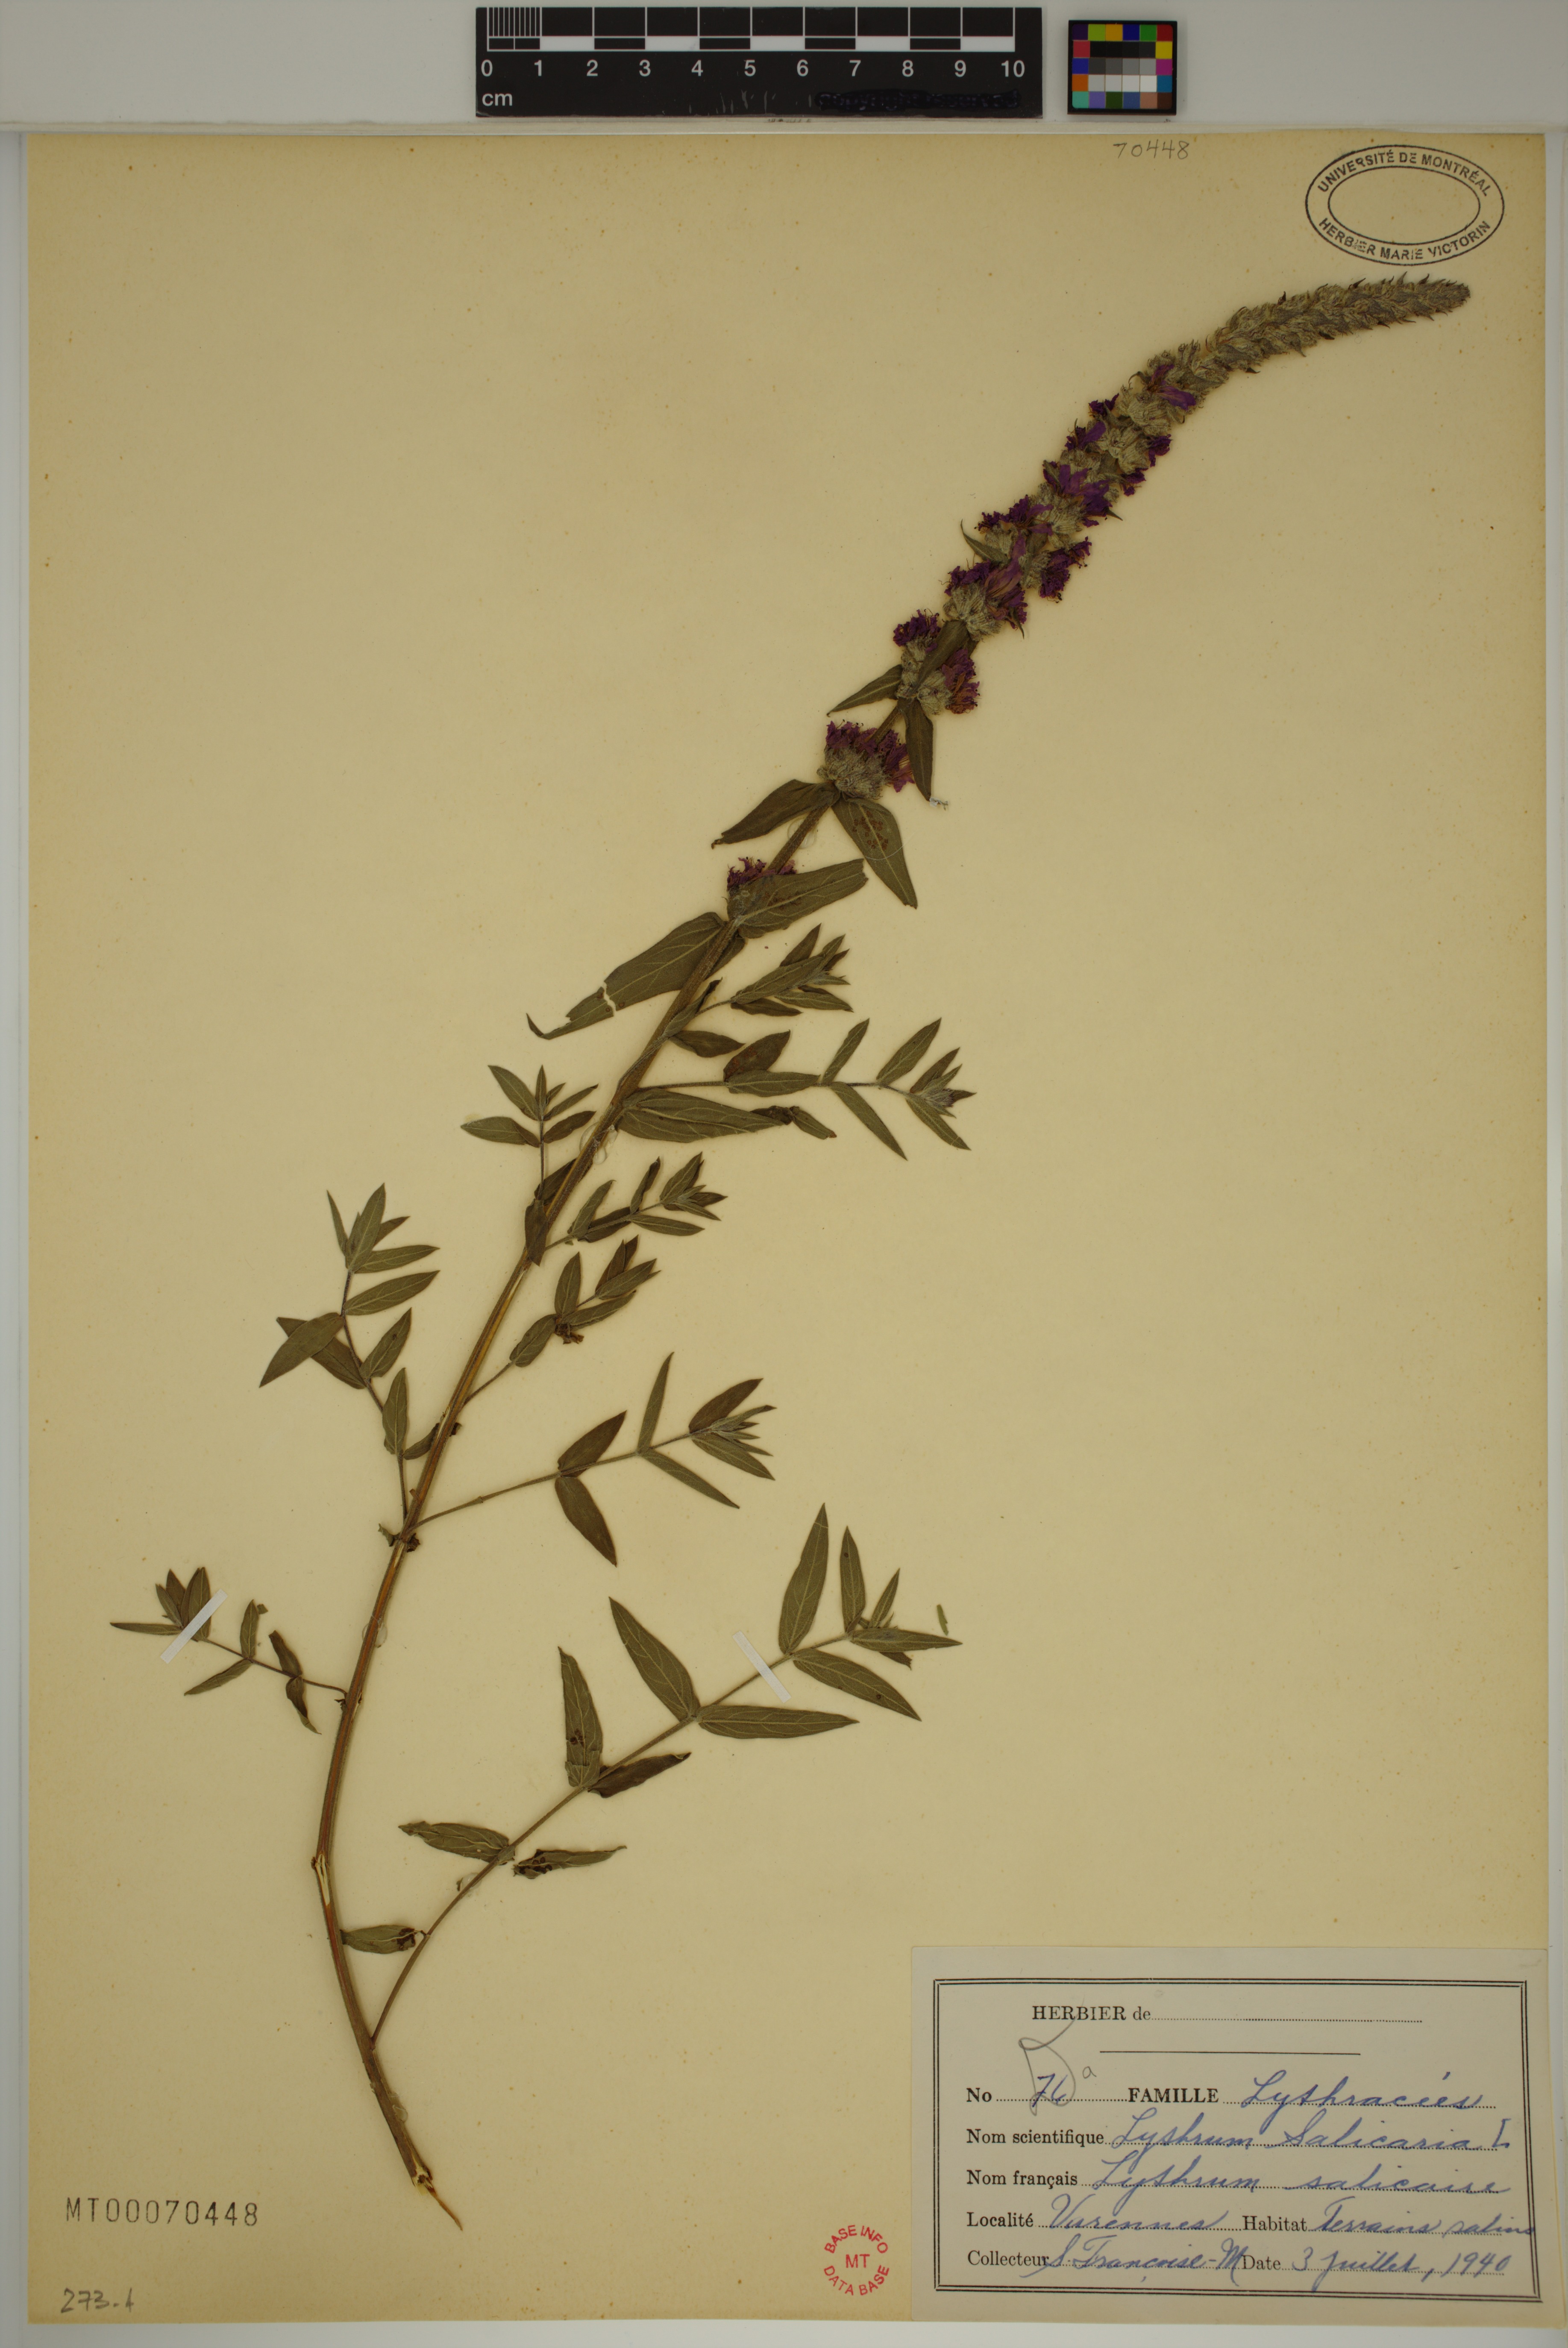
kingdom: Plantae
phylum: Tracheophyta
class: Magnoliopsida
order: Myrtales
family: Lythraceae
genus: Lythrum
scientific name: Lythrum salicaria
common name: Purple loosestrife
